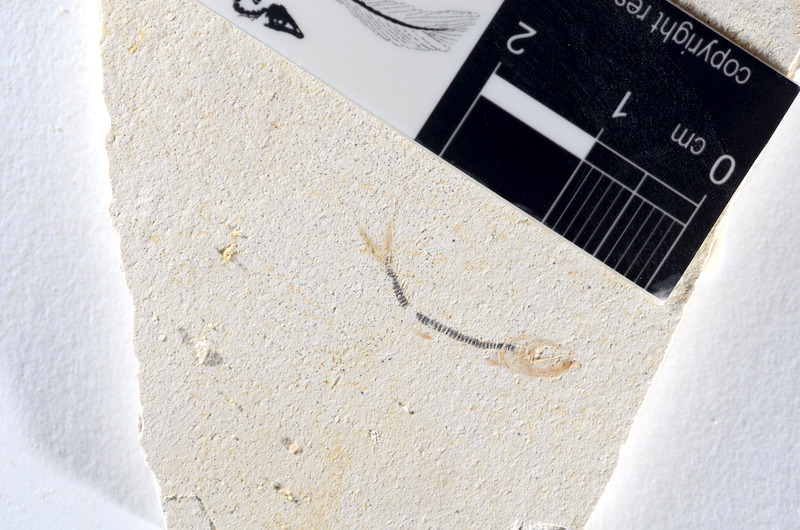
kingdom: Animalia
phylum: Chordata
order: Salmoniformes
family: Orthogonikleithridae
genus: Orthogonikleithrus
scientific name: Orthogonikleithrus hoelli
